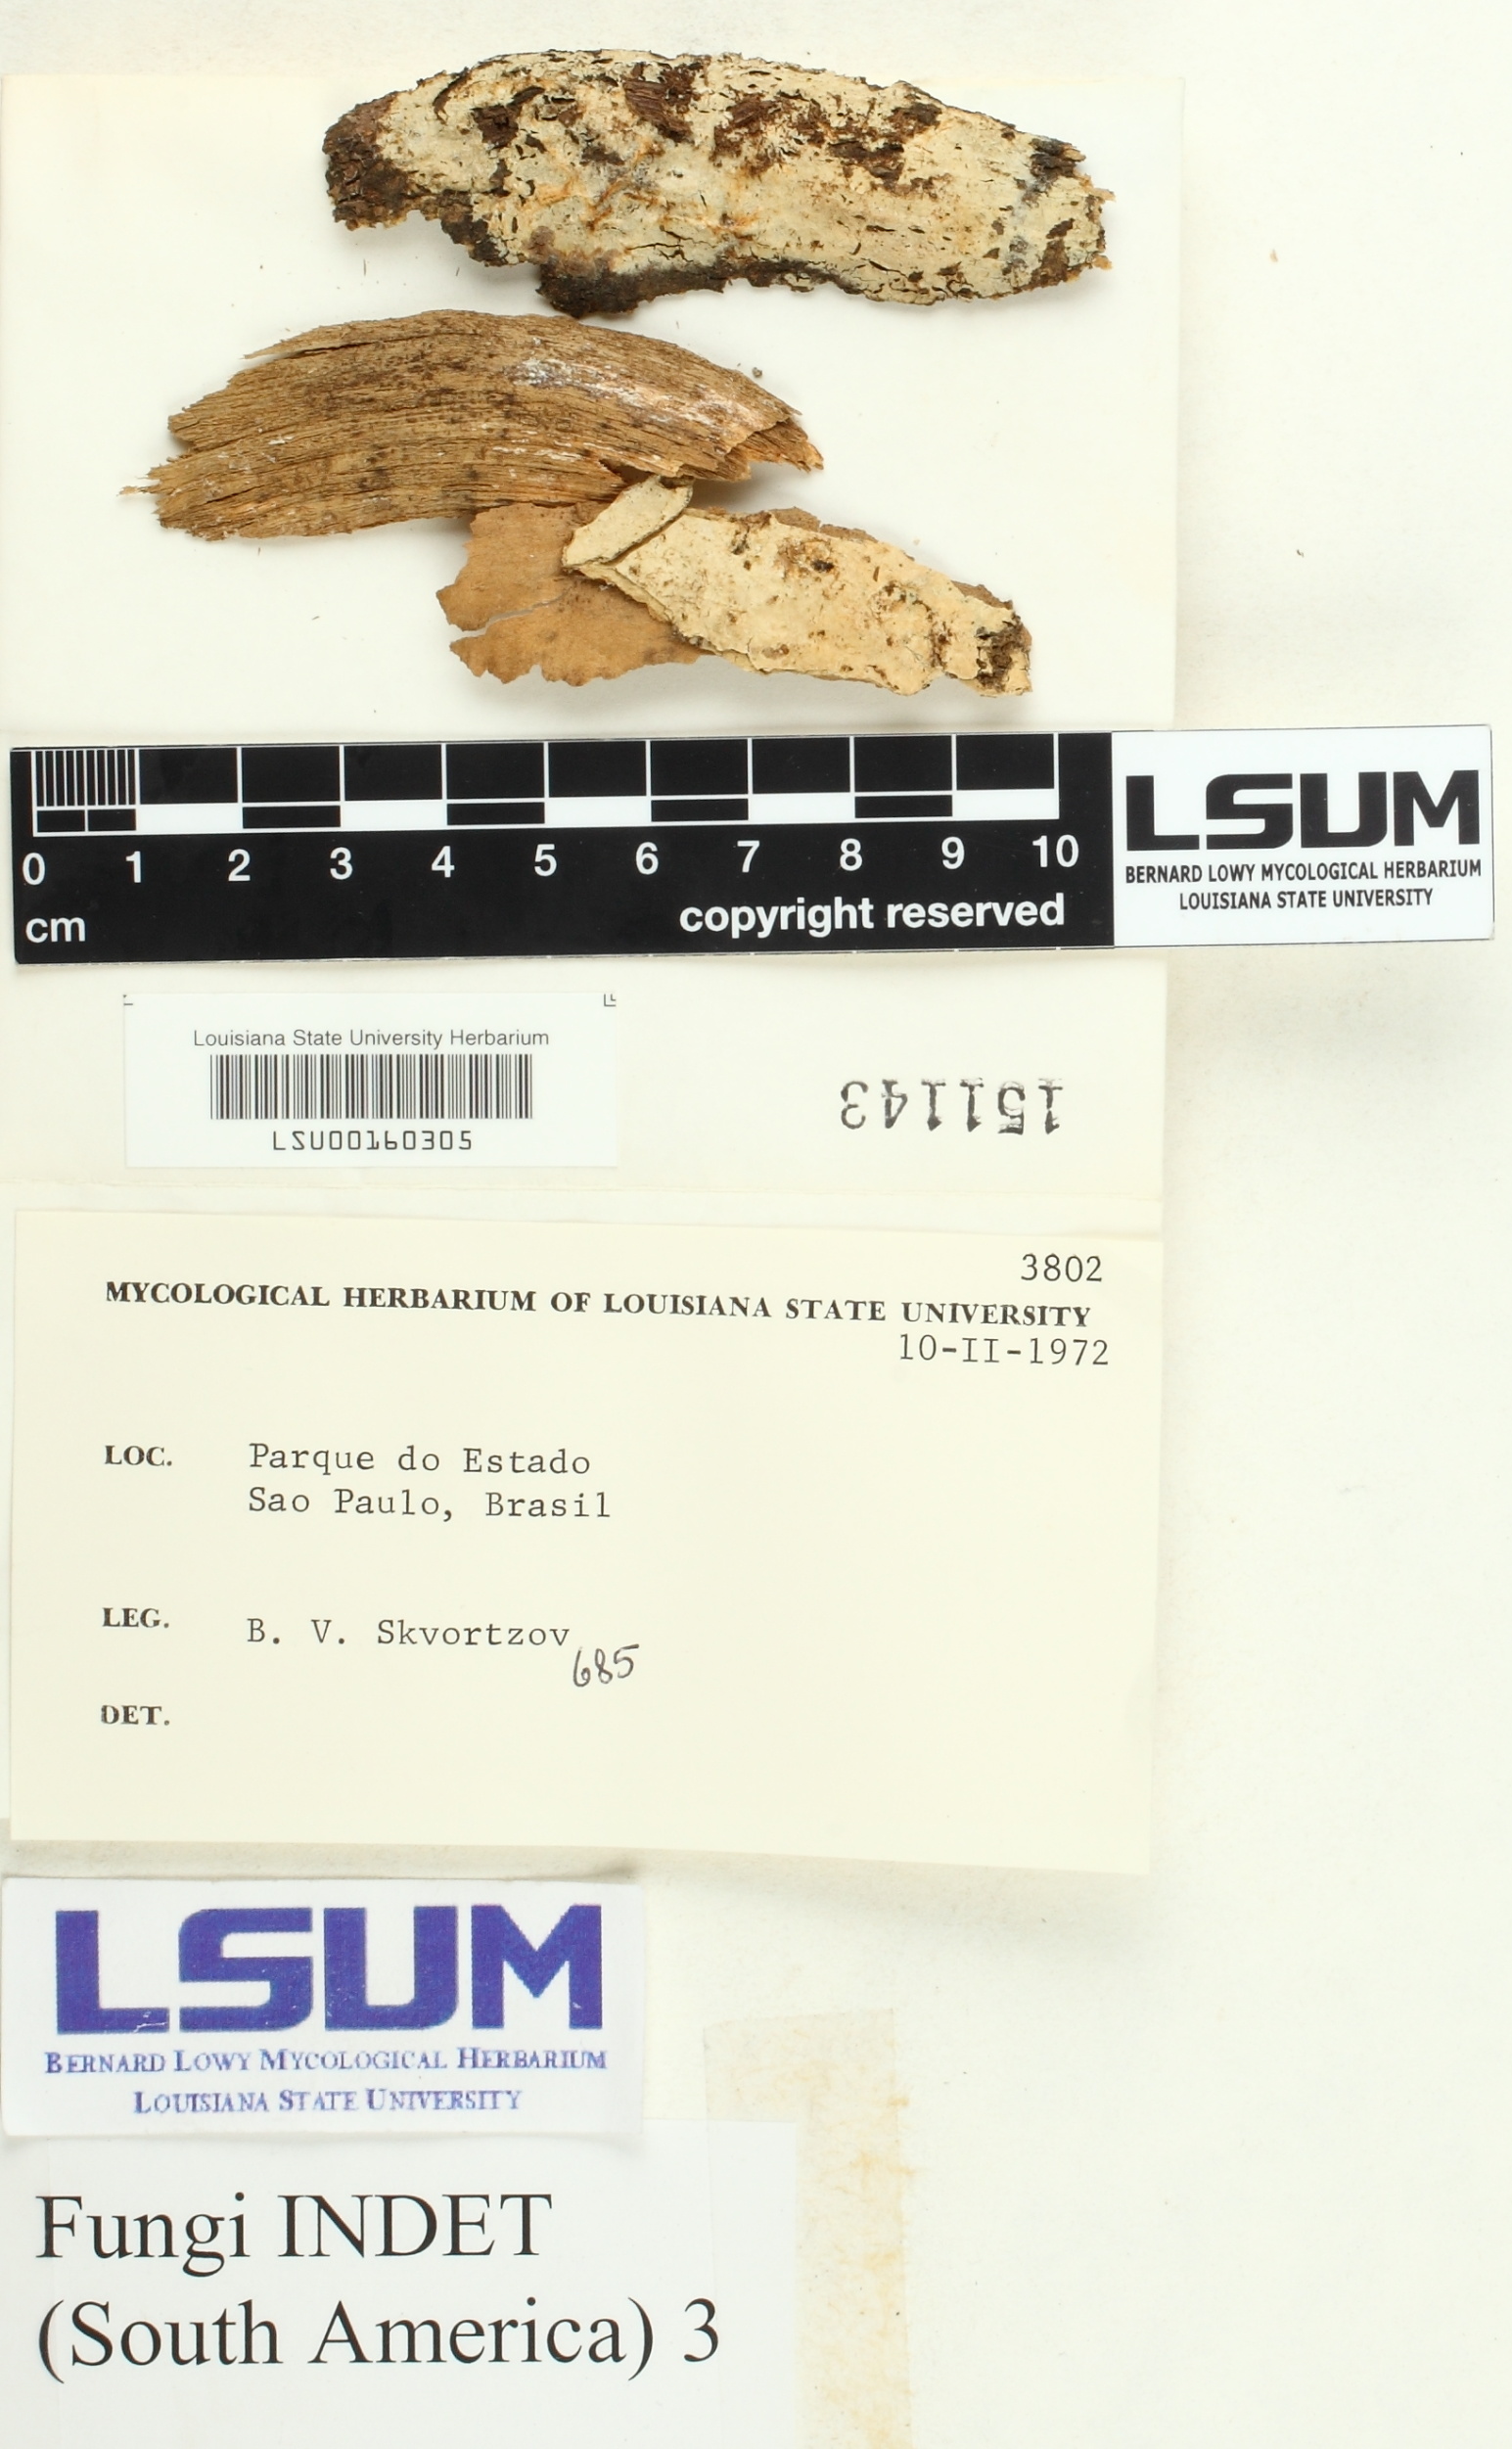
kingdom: Fungi
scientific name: Fungi
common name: Fungi
